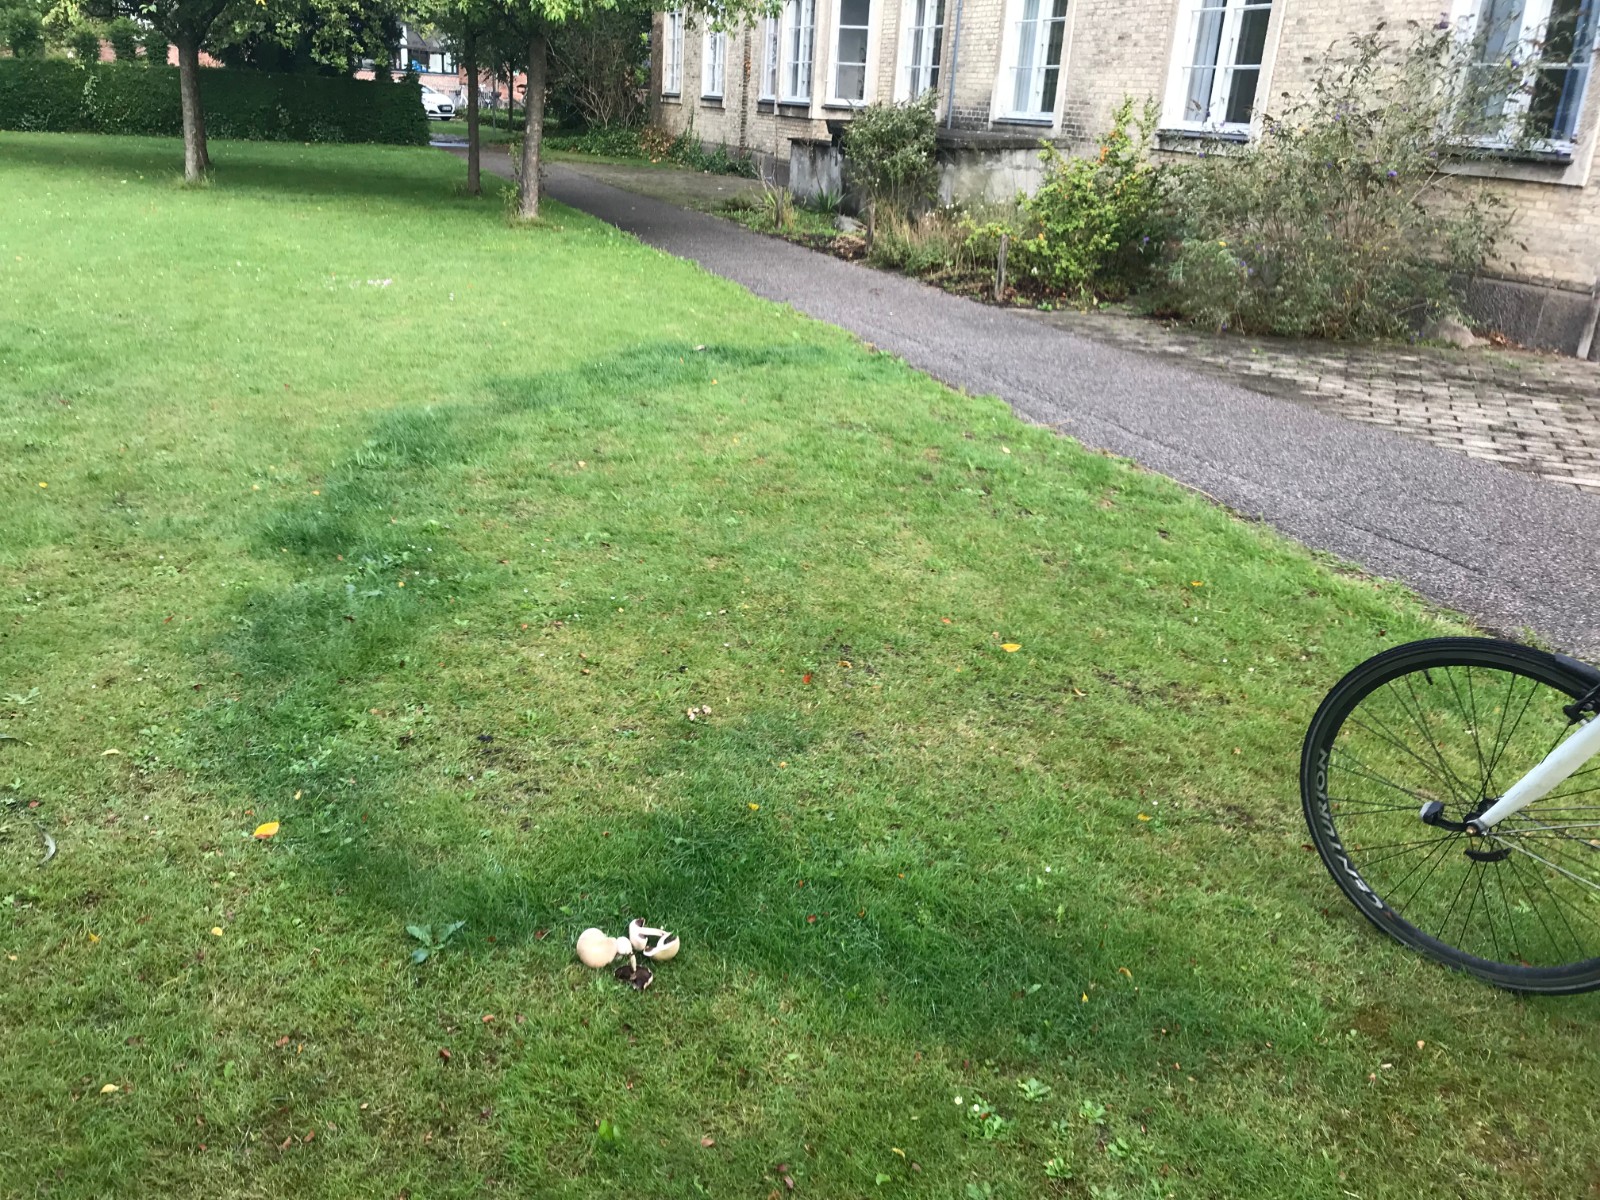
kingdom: Fungi
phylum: Basidiomycota
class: Agaricomycetes
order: Agaricales
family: Agaricaceae
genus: Agaricus
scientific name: Agaricus
